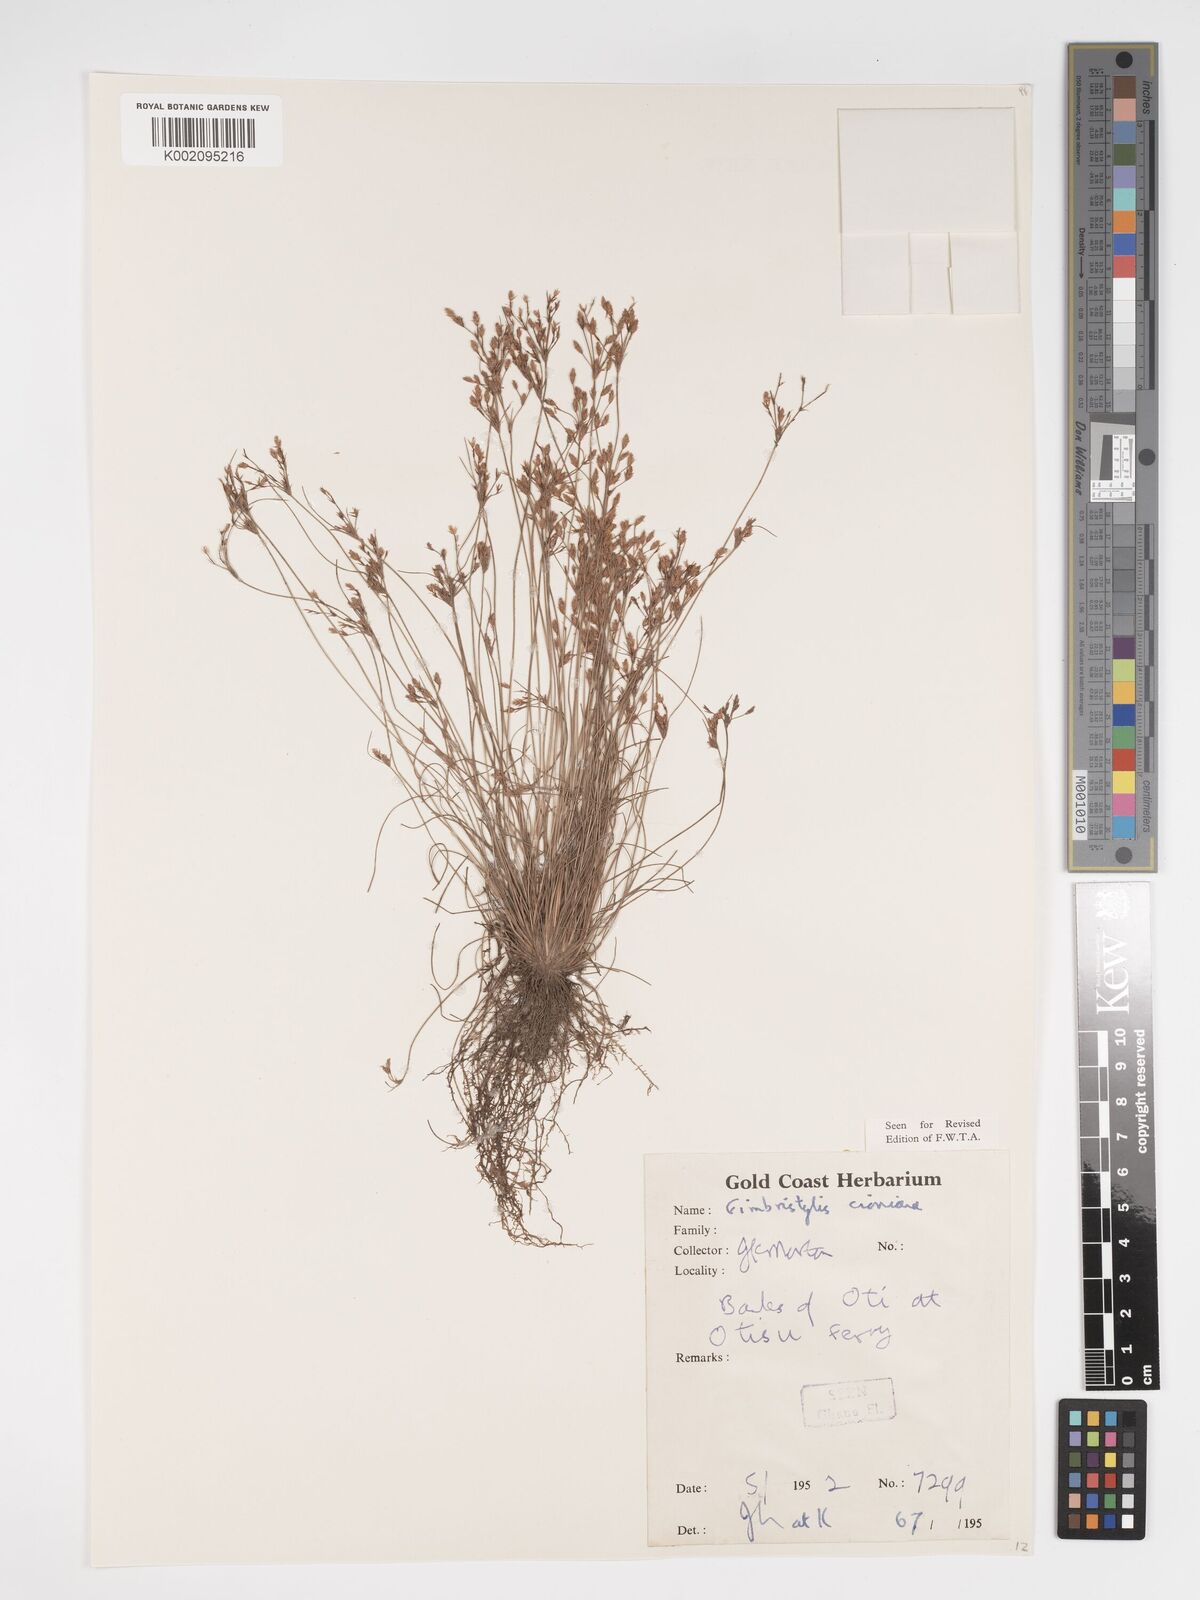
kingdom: Plantae
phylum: Tracheophyta
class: Liliopsida
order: Poales
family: Cyperaceae
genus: Bulbostylis
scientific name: Bulbostylis cioniana
